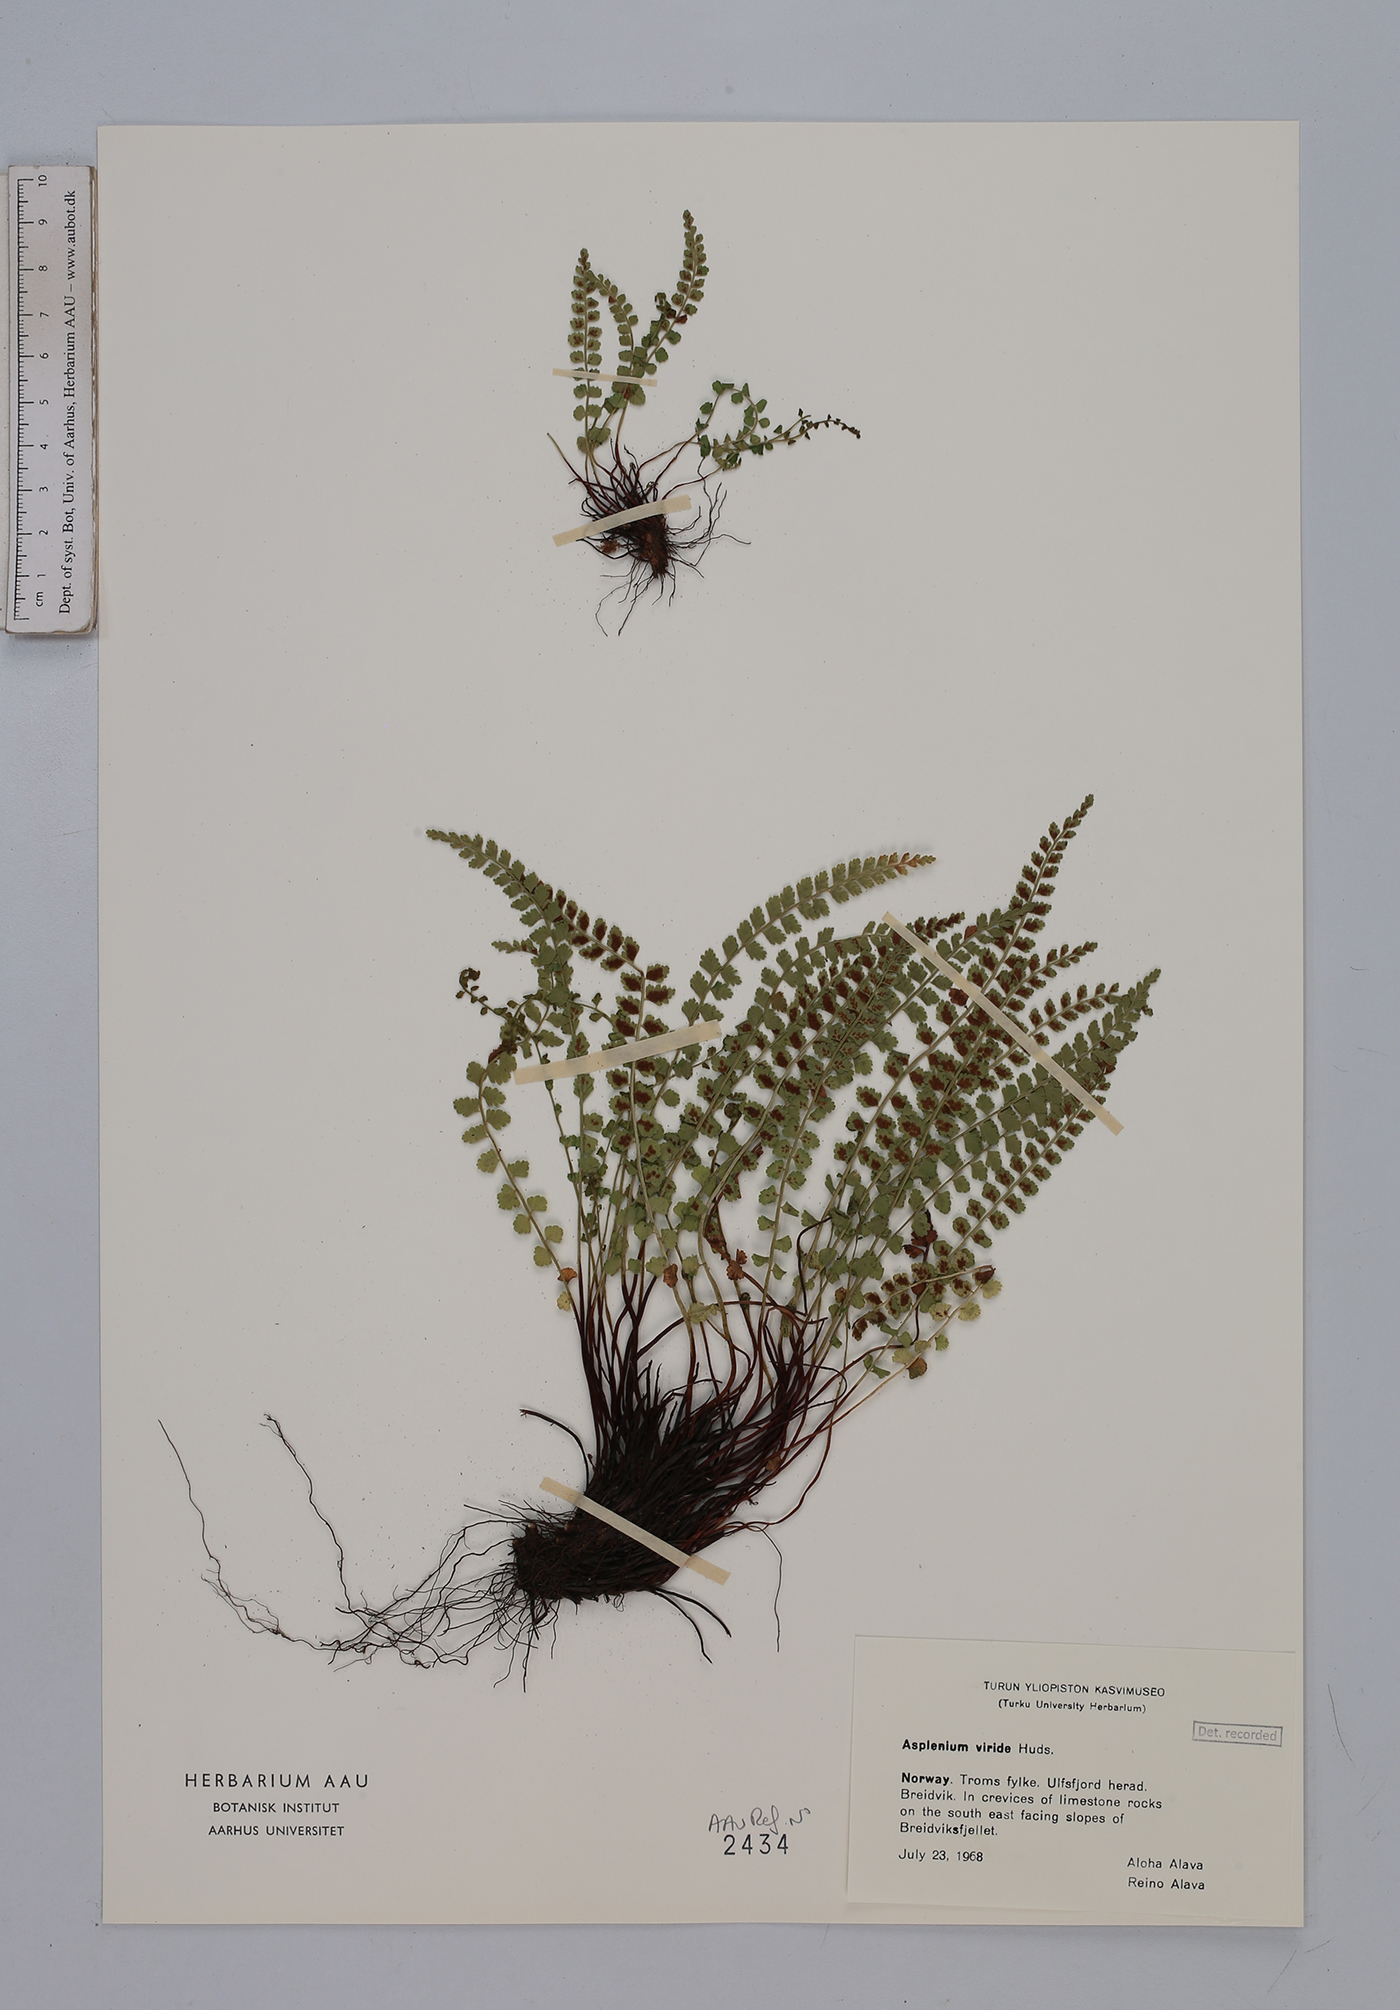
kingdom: Plantae
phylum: Tracheophyta
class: Polypodiopsida
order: Polypodiales
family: Aspleniaceae
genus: Asplenium
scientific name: Asplenium viride
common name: Green spleenwort
